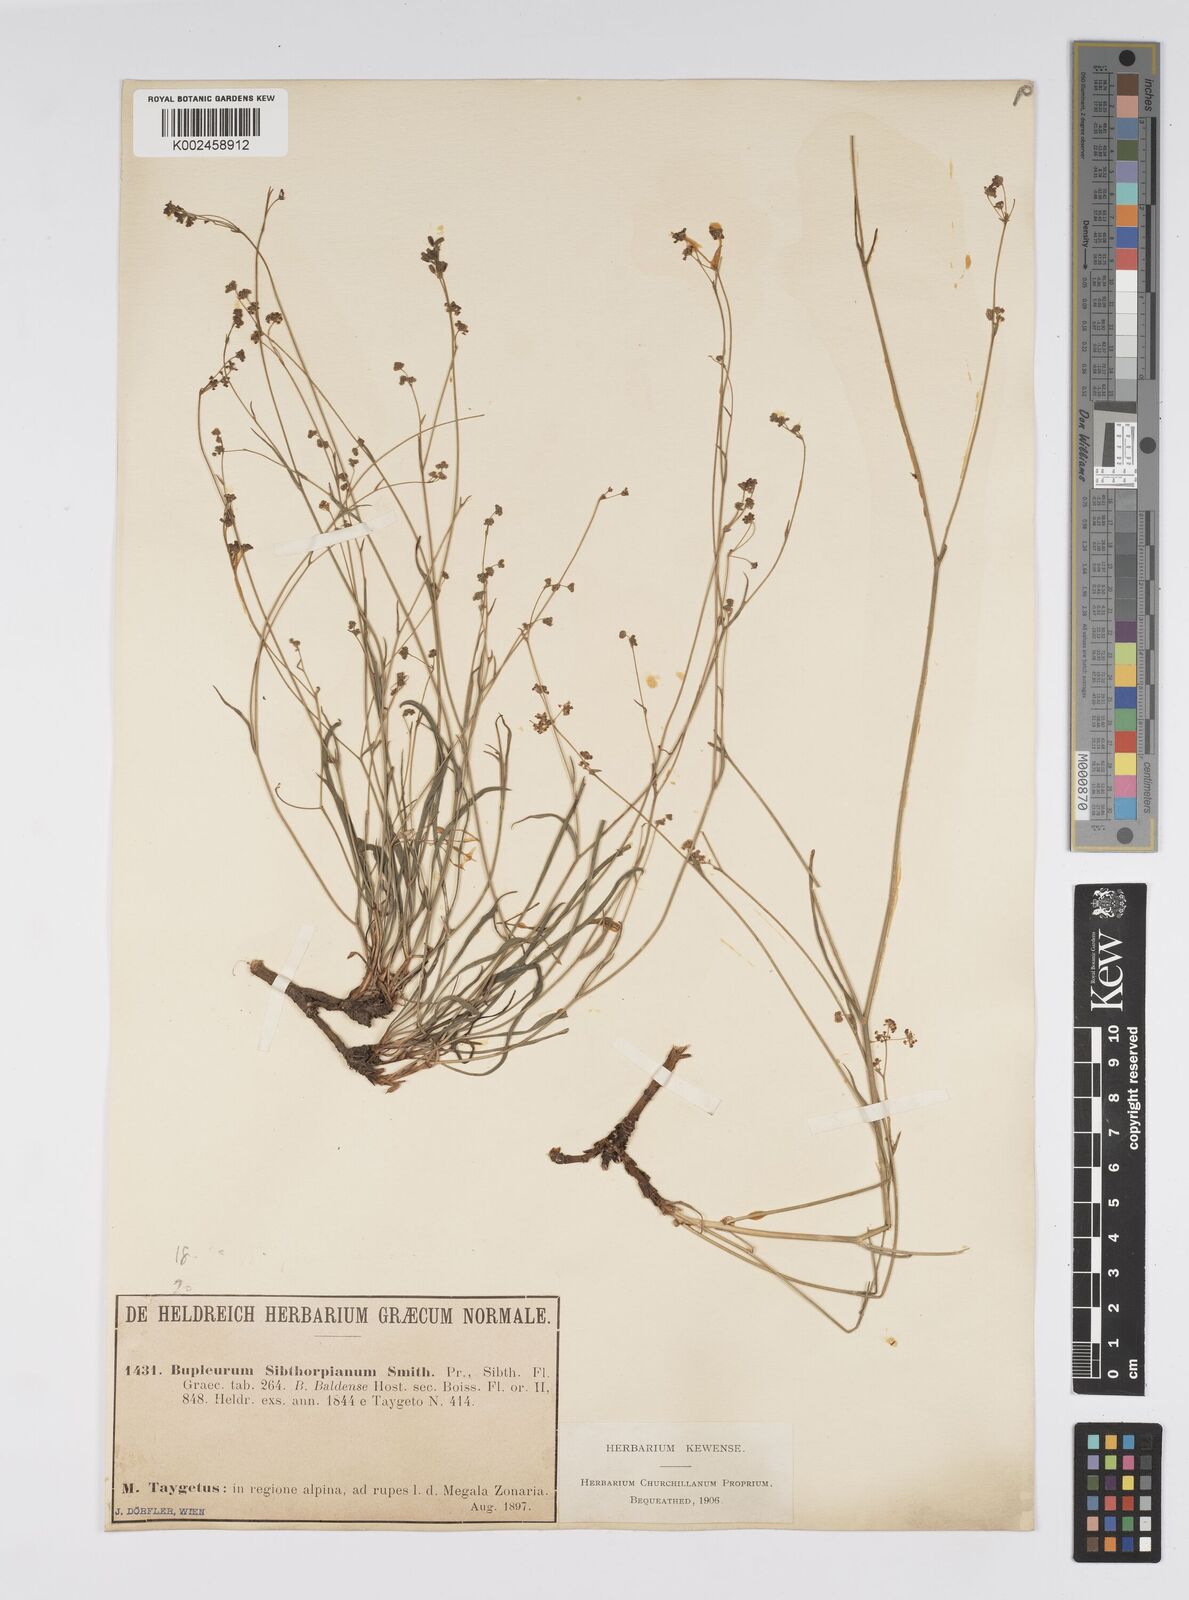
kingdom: Plantae
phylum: Tracheophyta
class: Magnoliopsida
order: Apiales
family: Apiaceae
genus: Bupleurum
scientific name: Bupleurum falcatum
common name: Sickle-leaved hare's-ear
